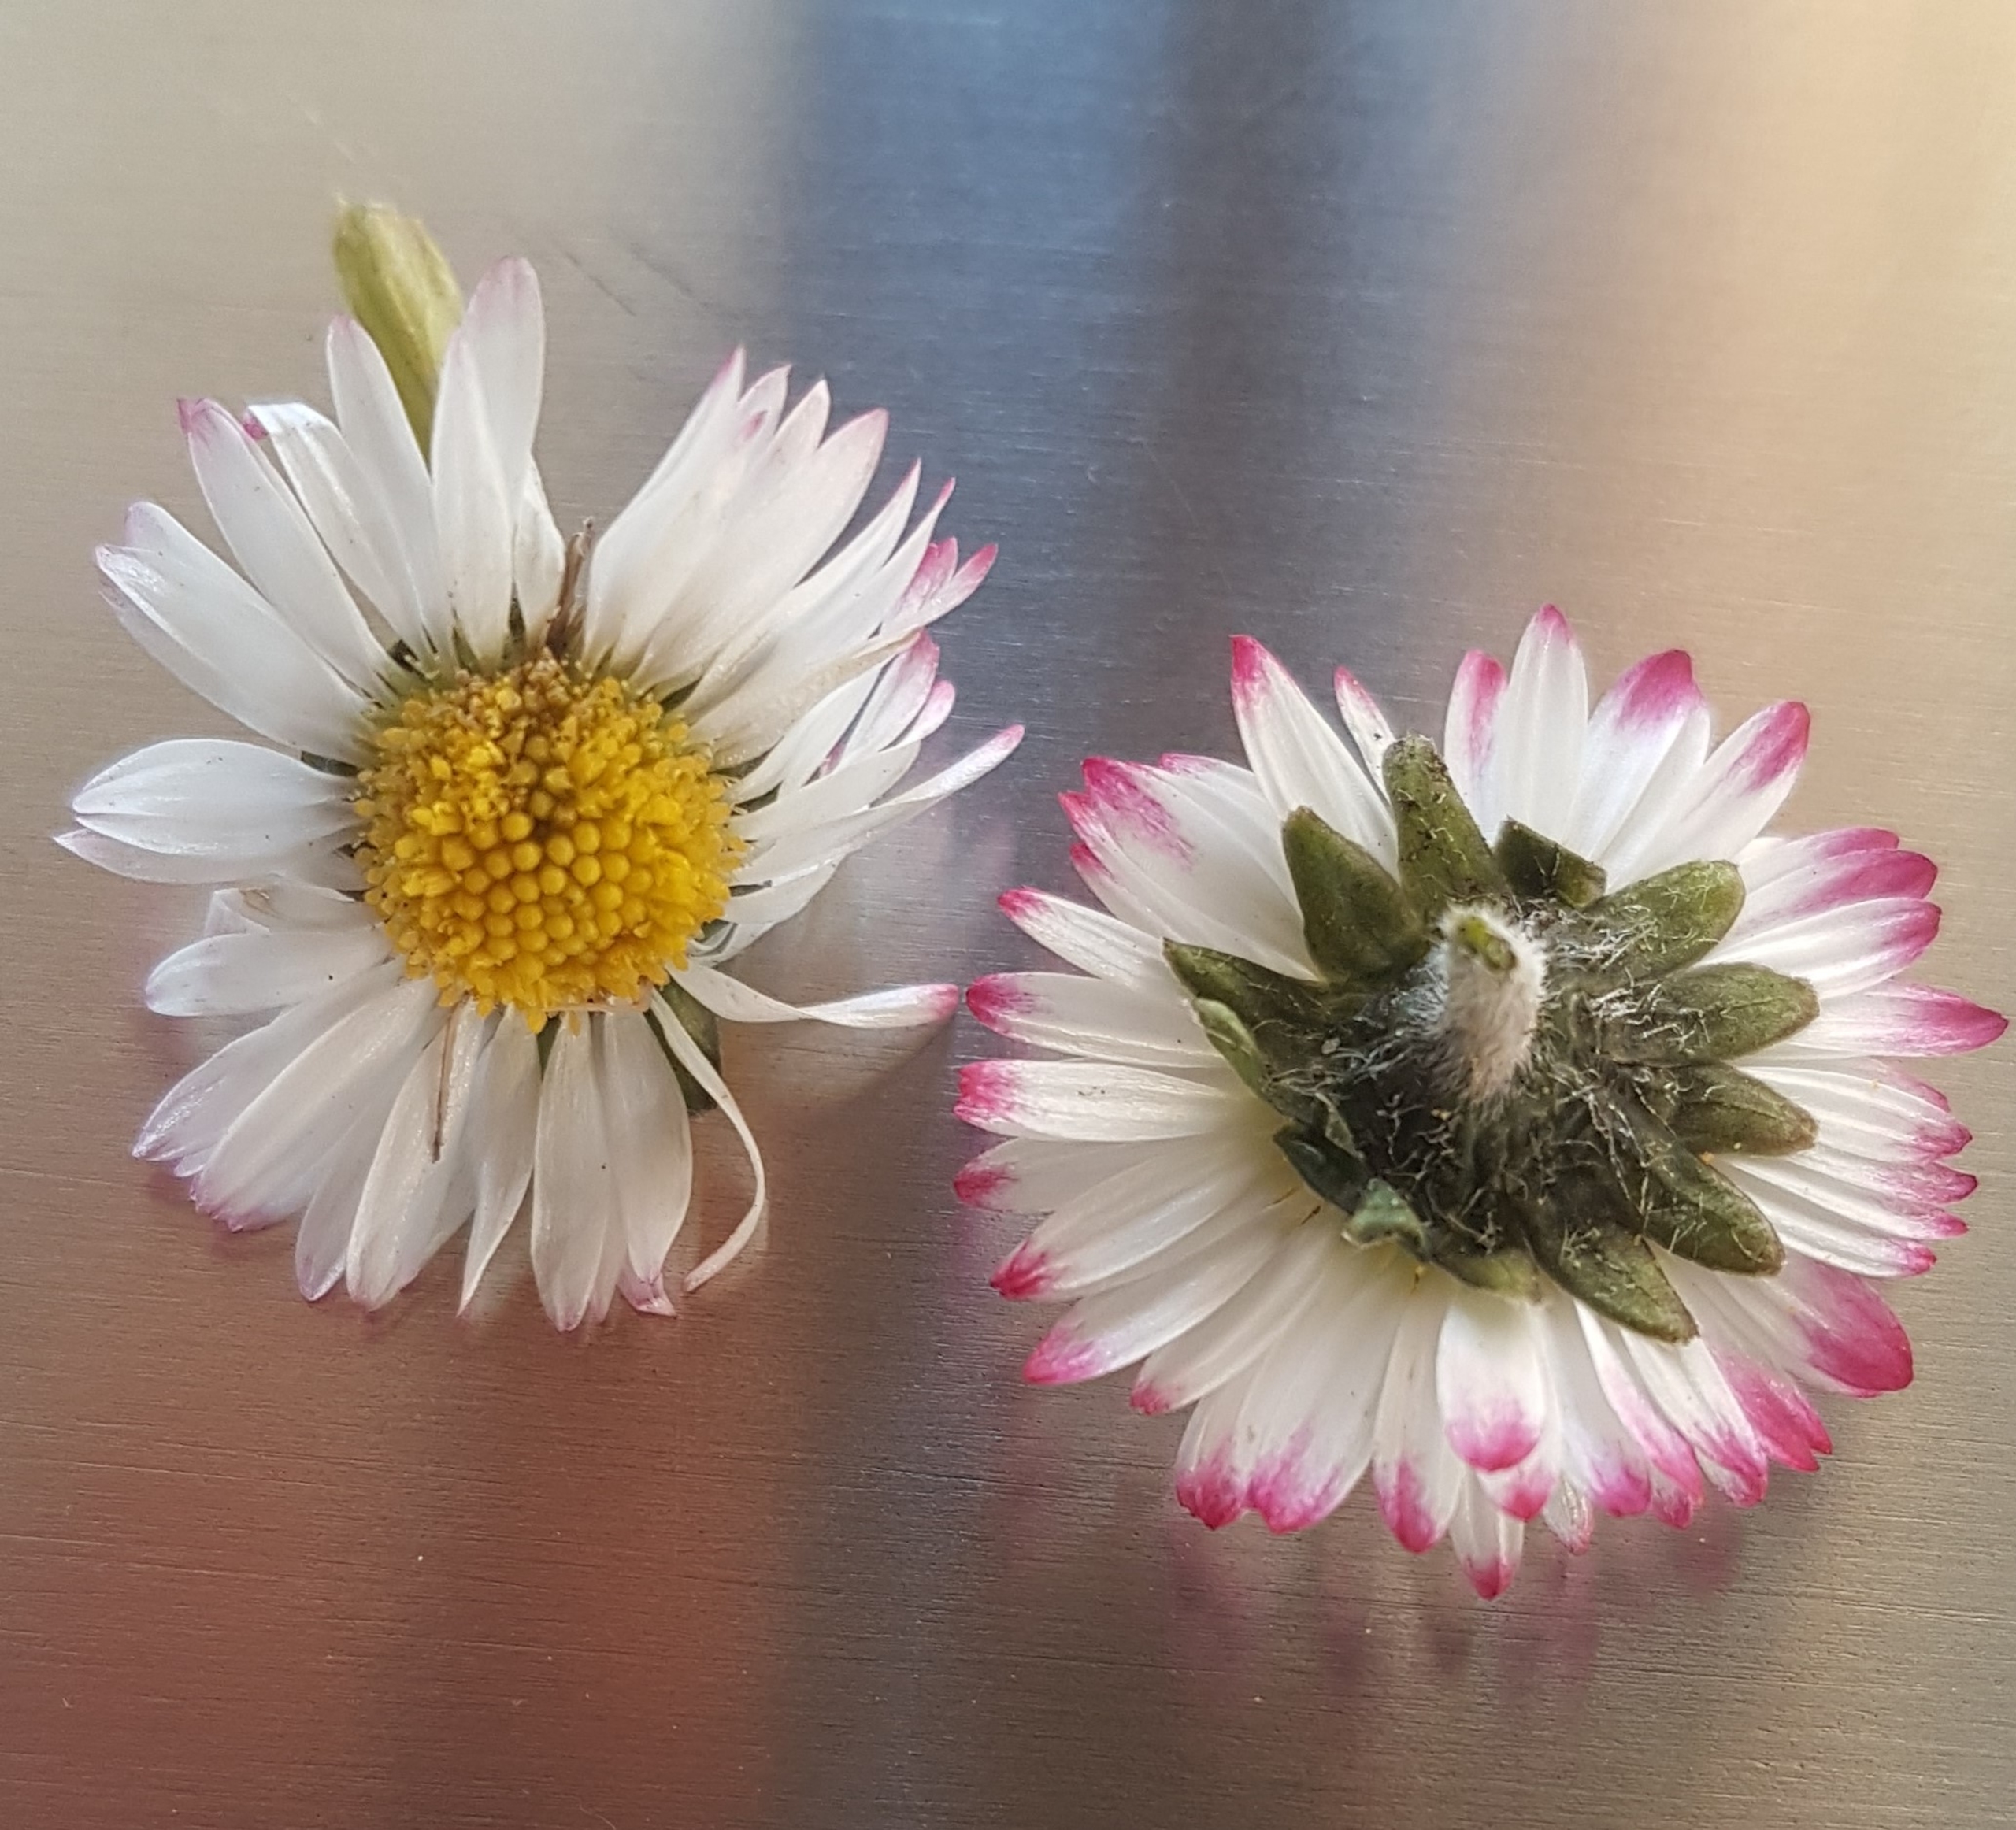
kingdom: Plantae
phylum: Tracheophyta
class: Magnoliopsida
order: Asterales
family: Asteraceae
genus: Bellis
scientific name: Bellis perennis
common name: Tusindfryd
